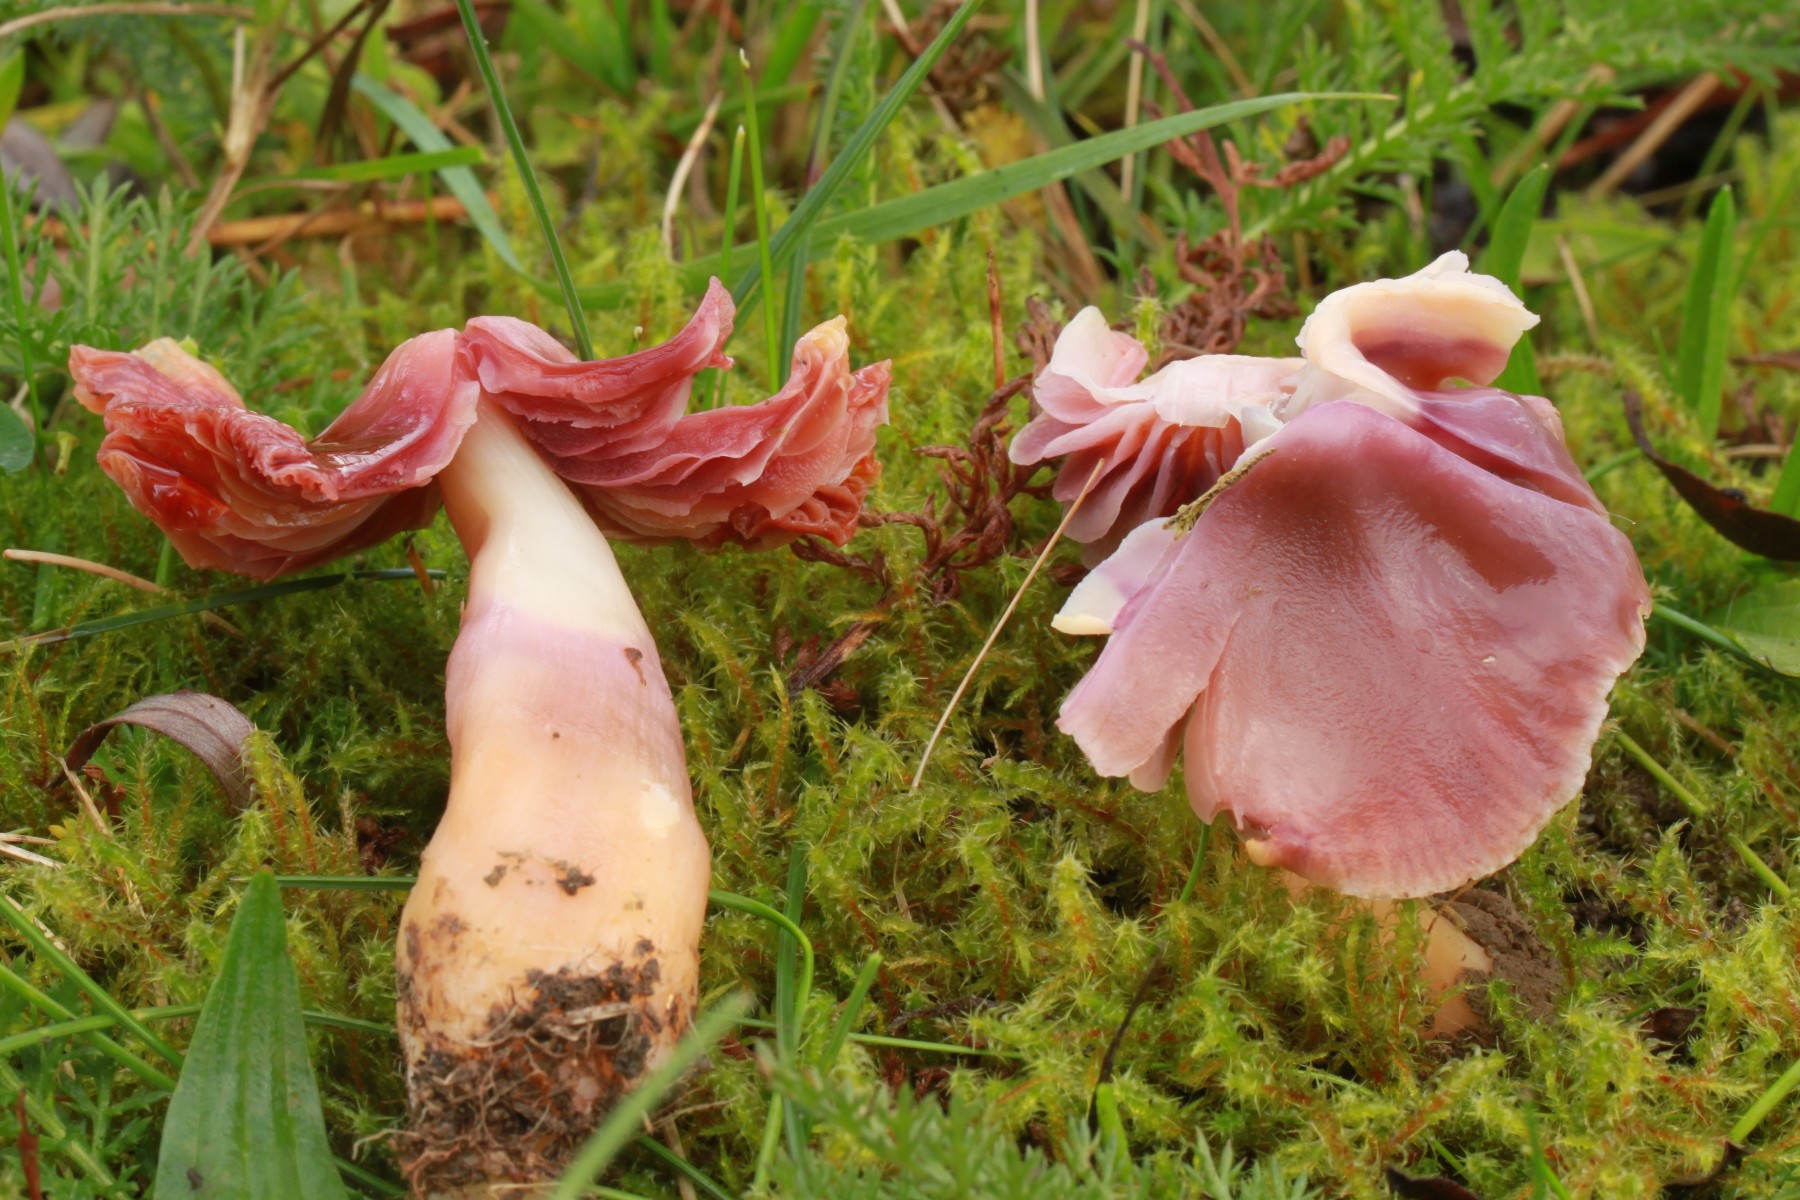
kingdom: Fungi
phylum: Basidiomycota
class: Agaricomycetes
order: Agaricales
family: Hygrophoraceae
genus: Gliophorus
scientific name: Gliophorus reginae
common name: parakit-vokshat
